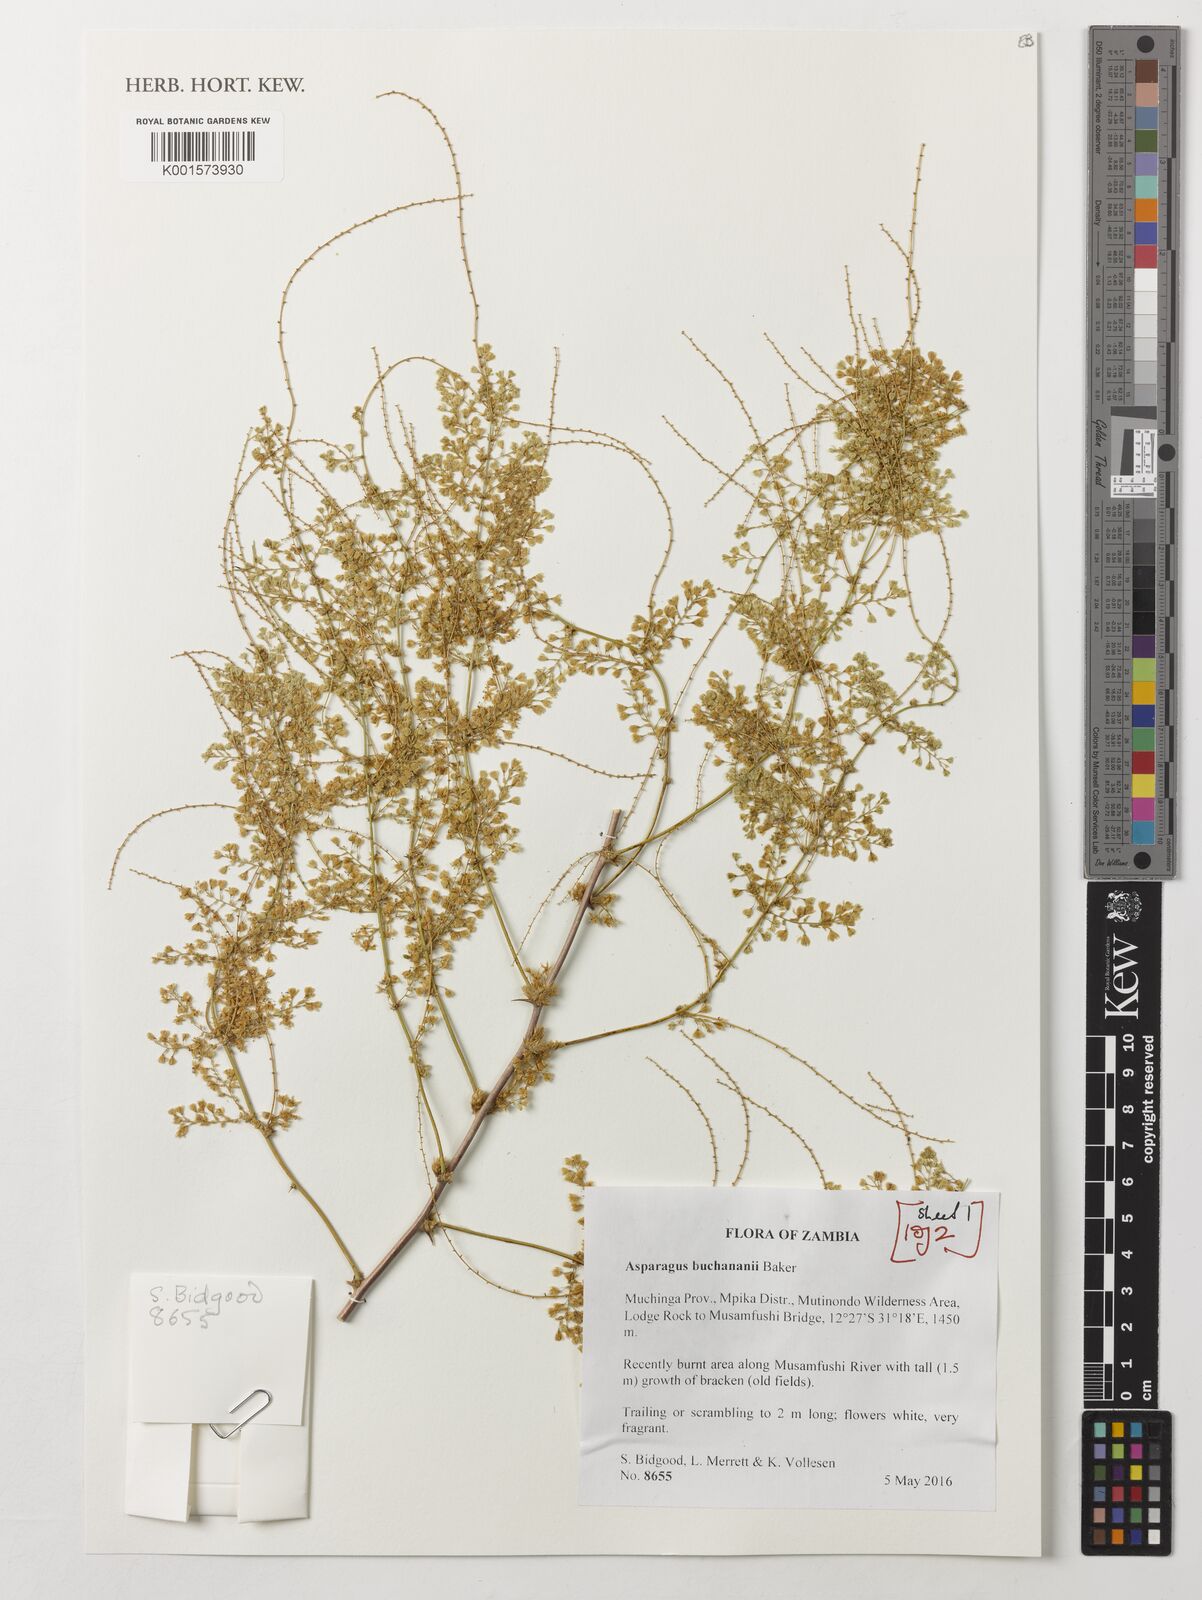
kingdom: Plantae
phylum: Tracheophyta
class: Liliopsida
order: Asparagales
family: Asparagaceae
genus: Asparagus
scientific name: Asparagus buchananii
